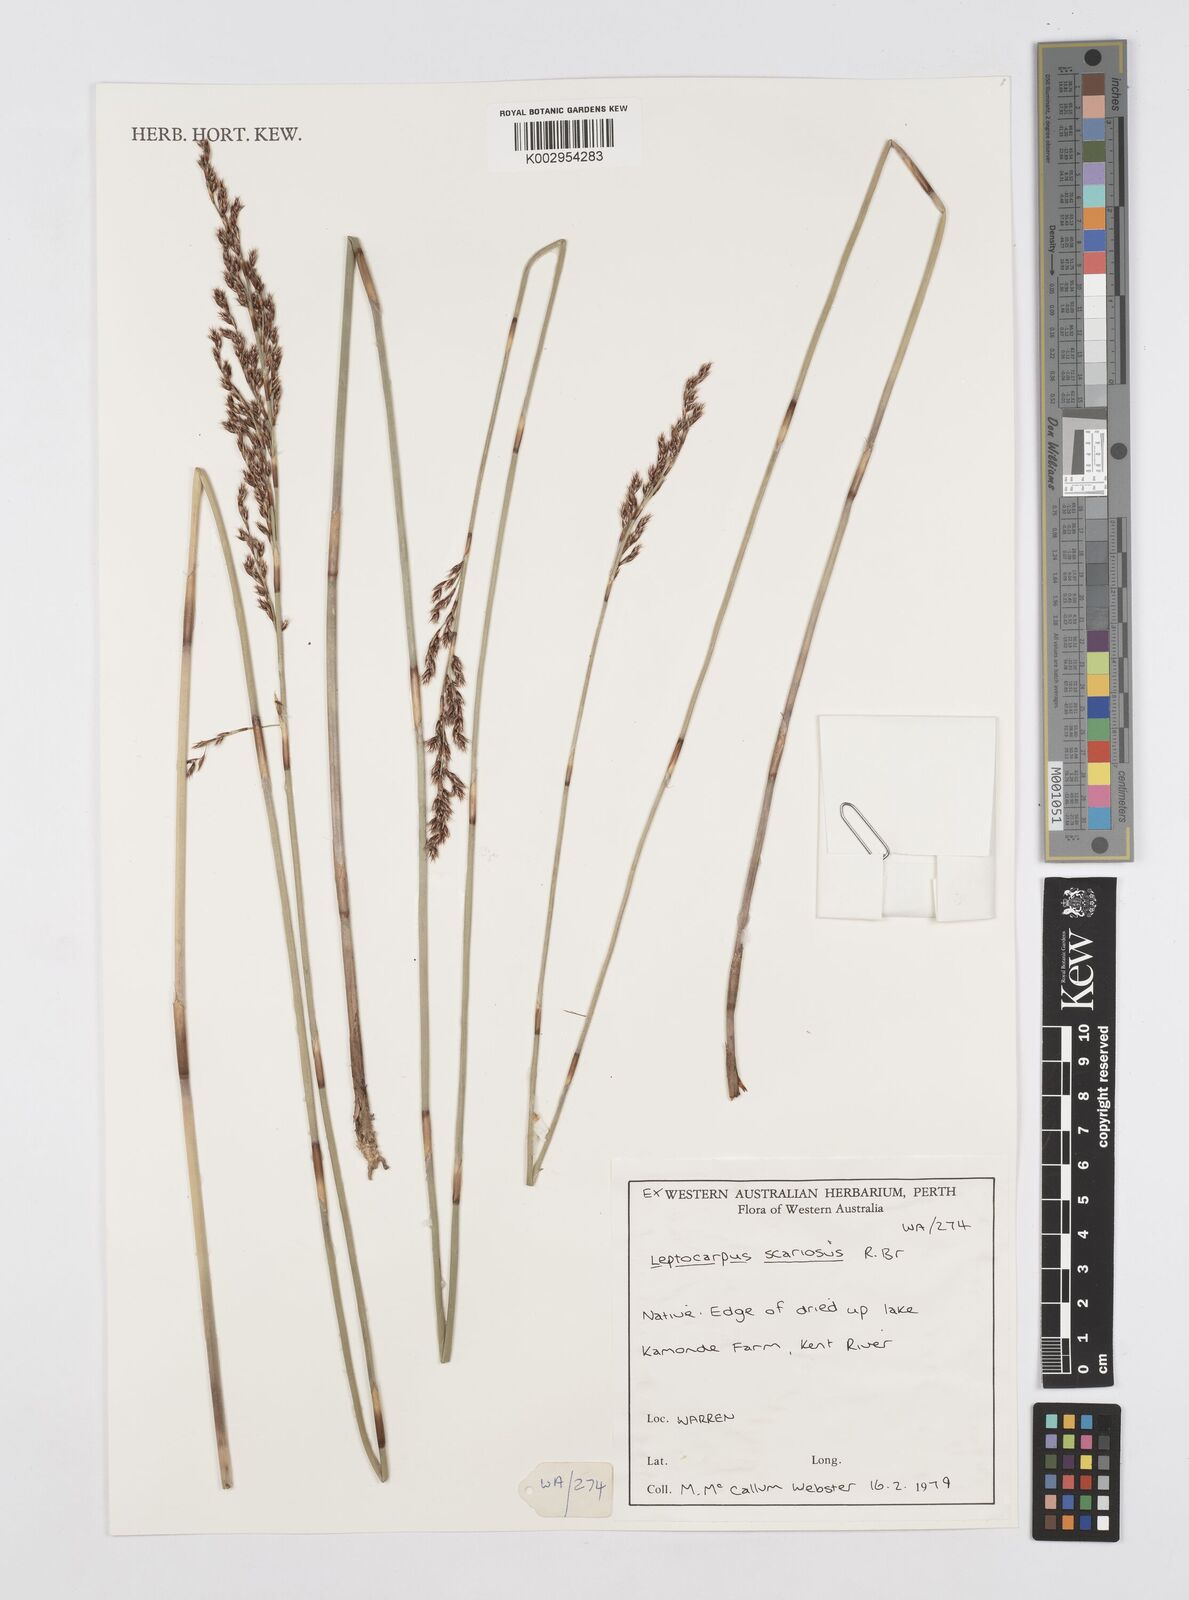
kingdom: Plantae
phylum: Tracheophyta
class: Liliopsida
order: Poales
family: Restionaceae
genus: Leptocarpus
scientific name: Leptocarpus scariosus
